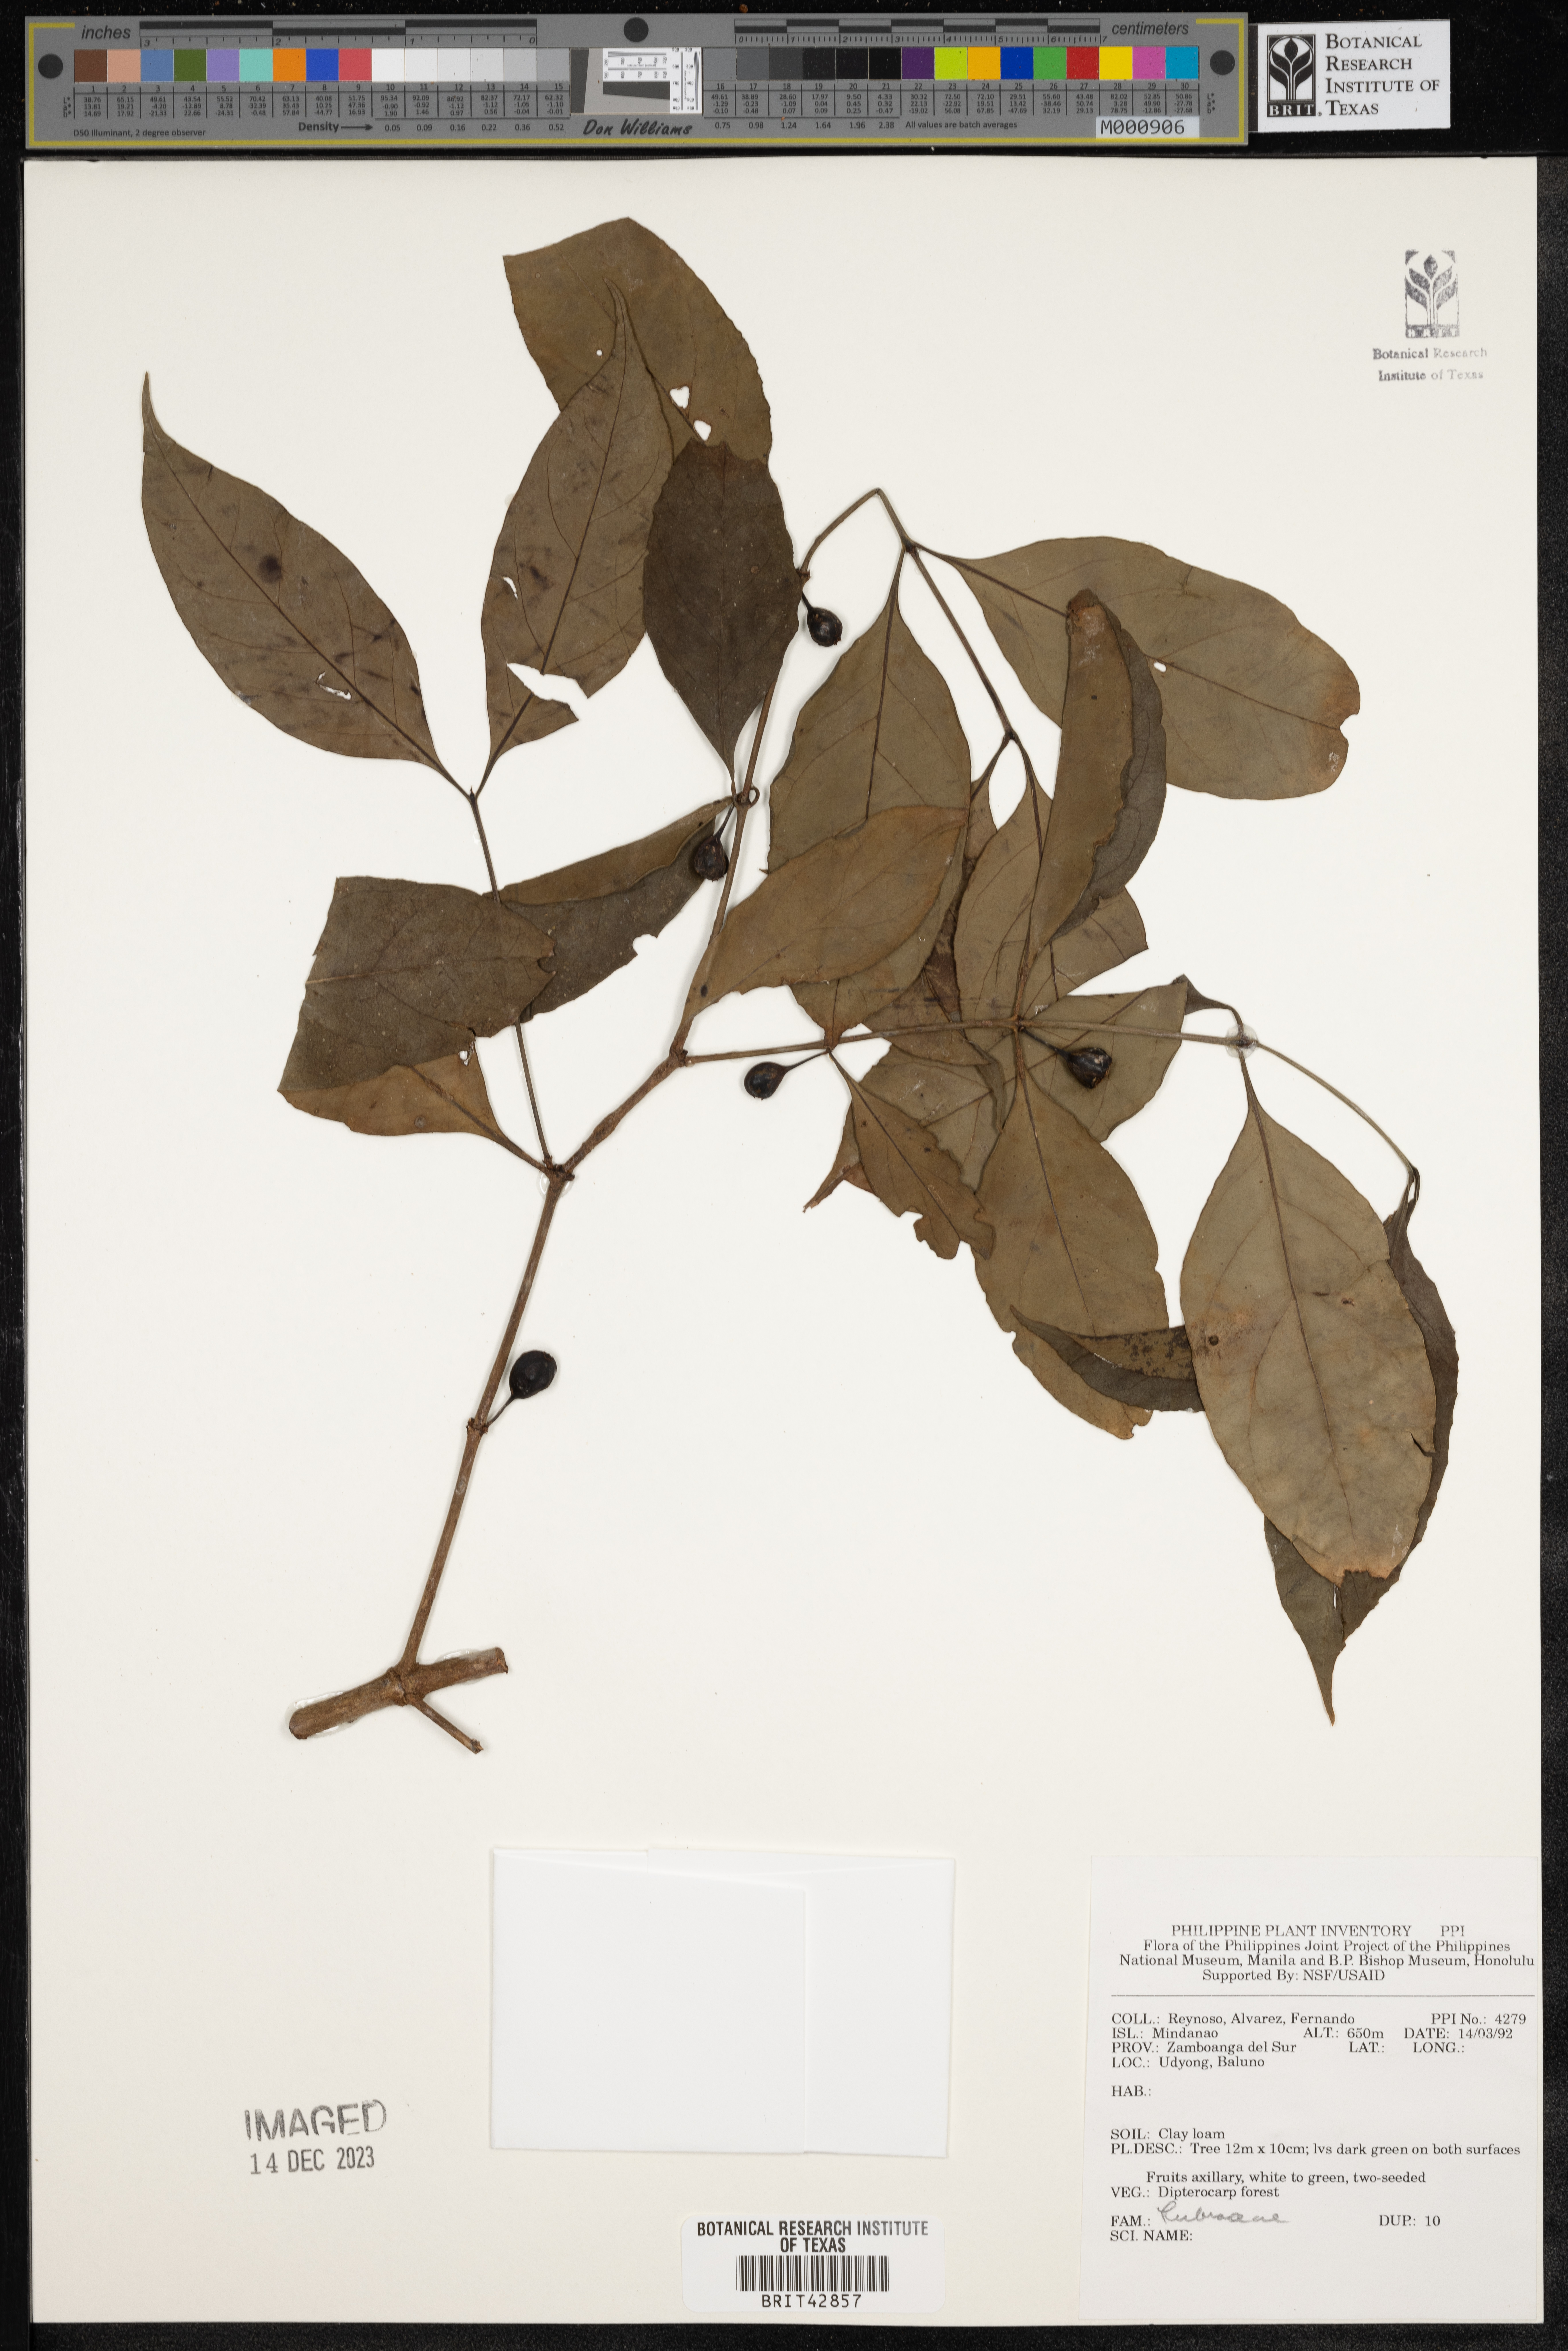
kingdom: Plantae
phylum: Tracheophyta
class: Magnoliopsida
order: Gentianales
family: Rubiaceae
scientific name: Rubiaceae
